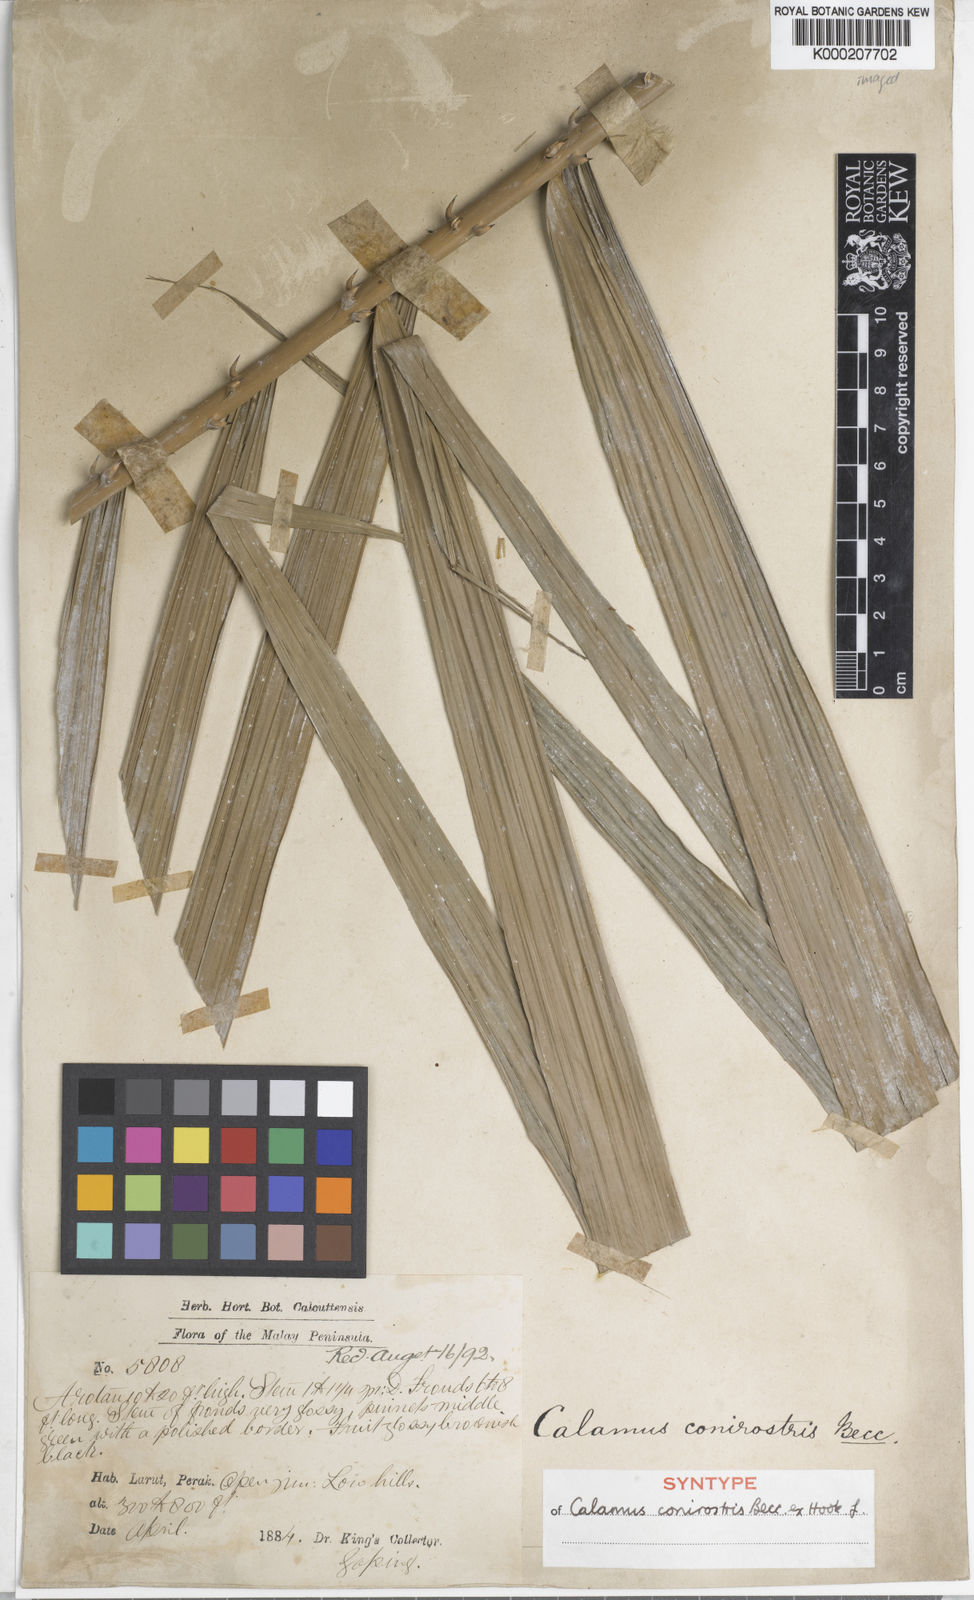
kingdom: Plantae
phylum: Tracheophyta
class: Liliopsida
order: Arecales
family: Arecaceae
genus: Calamus
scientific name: Calamus conirostris
